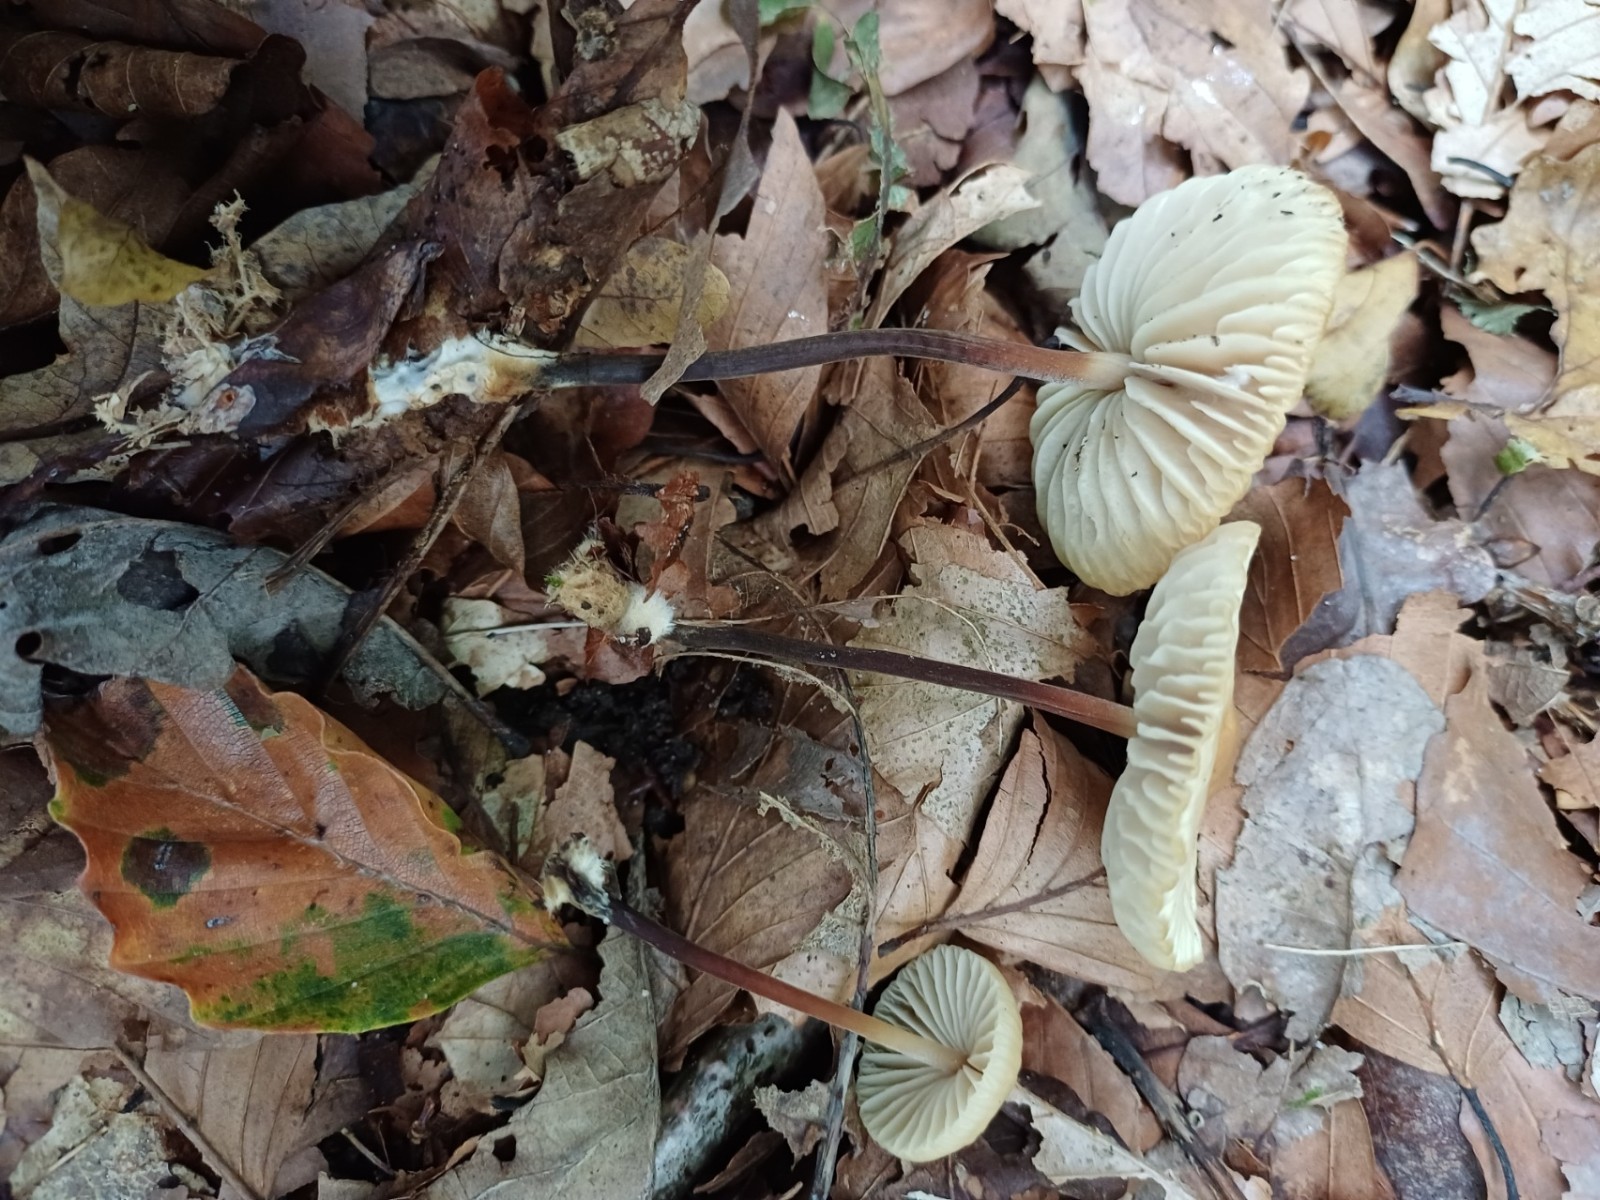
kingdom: Fungi
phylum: Basidiomycota
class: Agaricomycetes
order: Agaricales
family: Marasmiaceae
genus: Marasmius
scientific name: Marasmius torquescens
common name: filtfodet bruskhat
